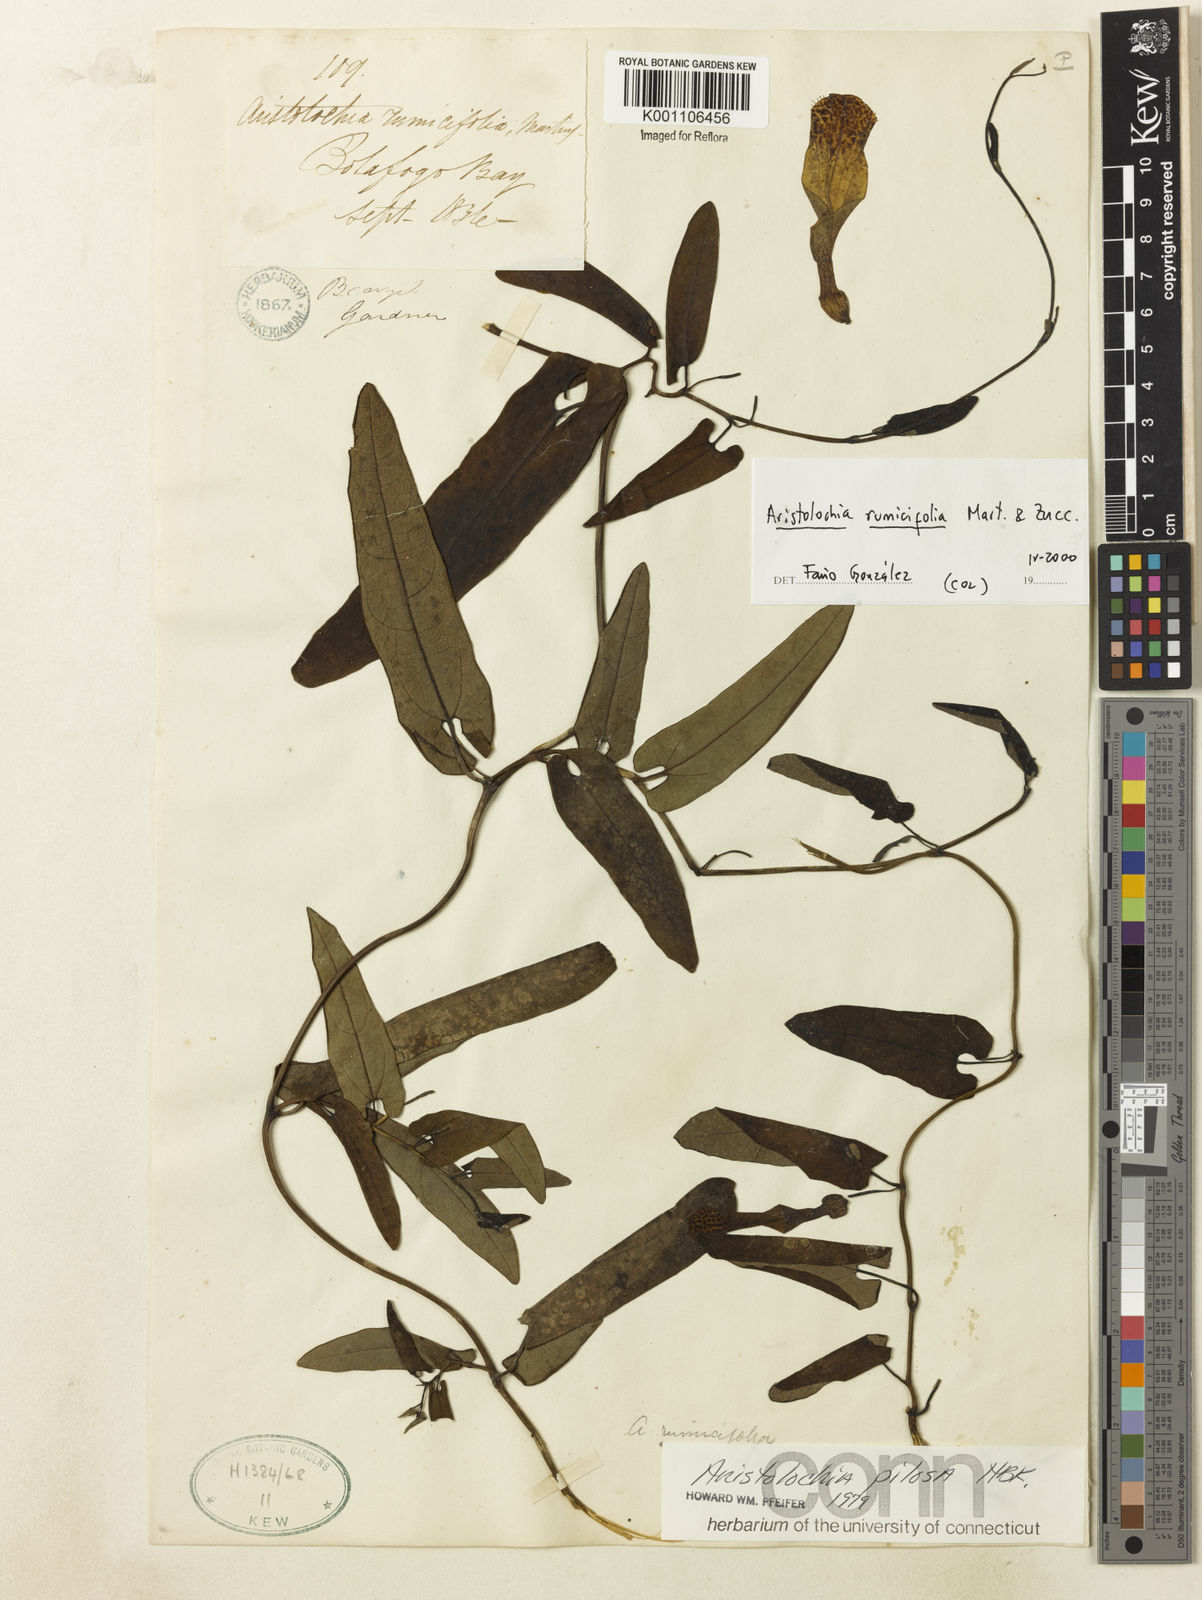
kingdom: Plantae
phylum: Tracheophyta
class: Magnoliopsida
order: Piperales
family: Aristolochiaceae
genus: Aristolochia
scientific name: Aristolochia rumicifolia
